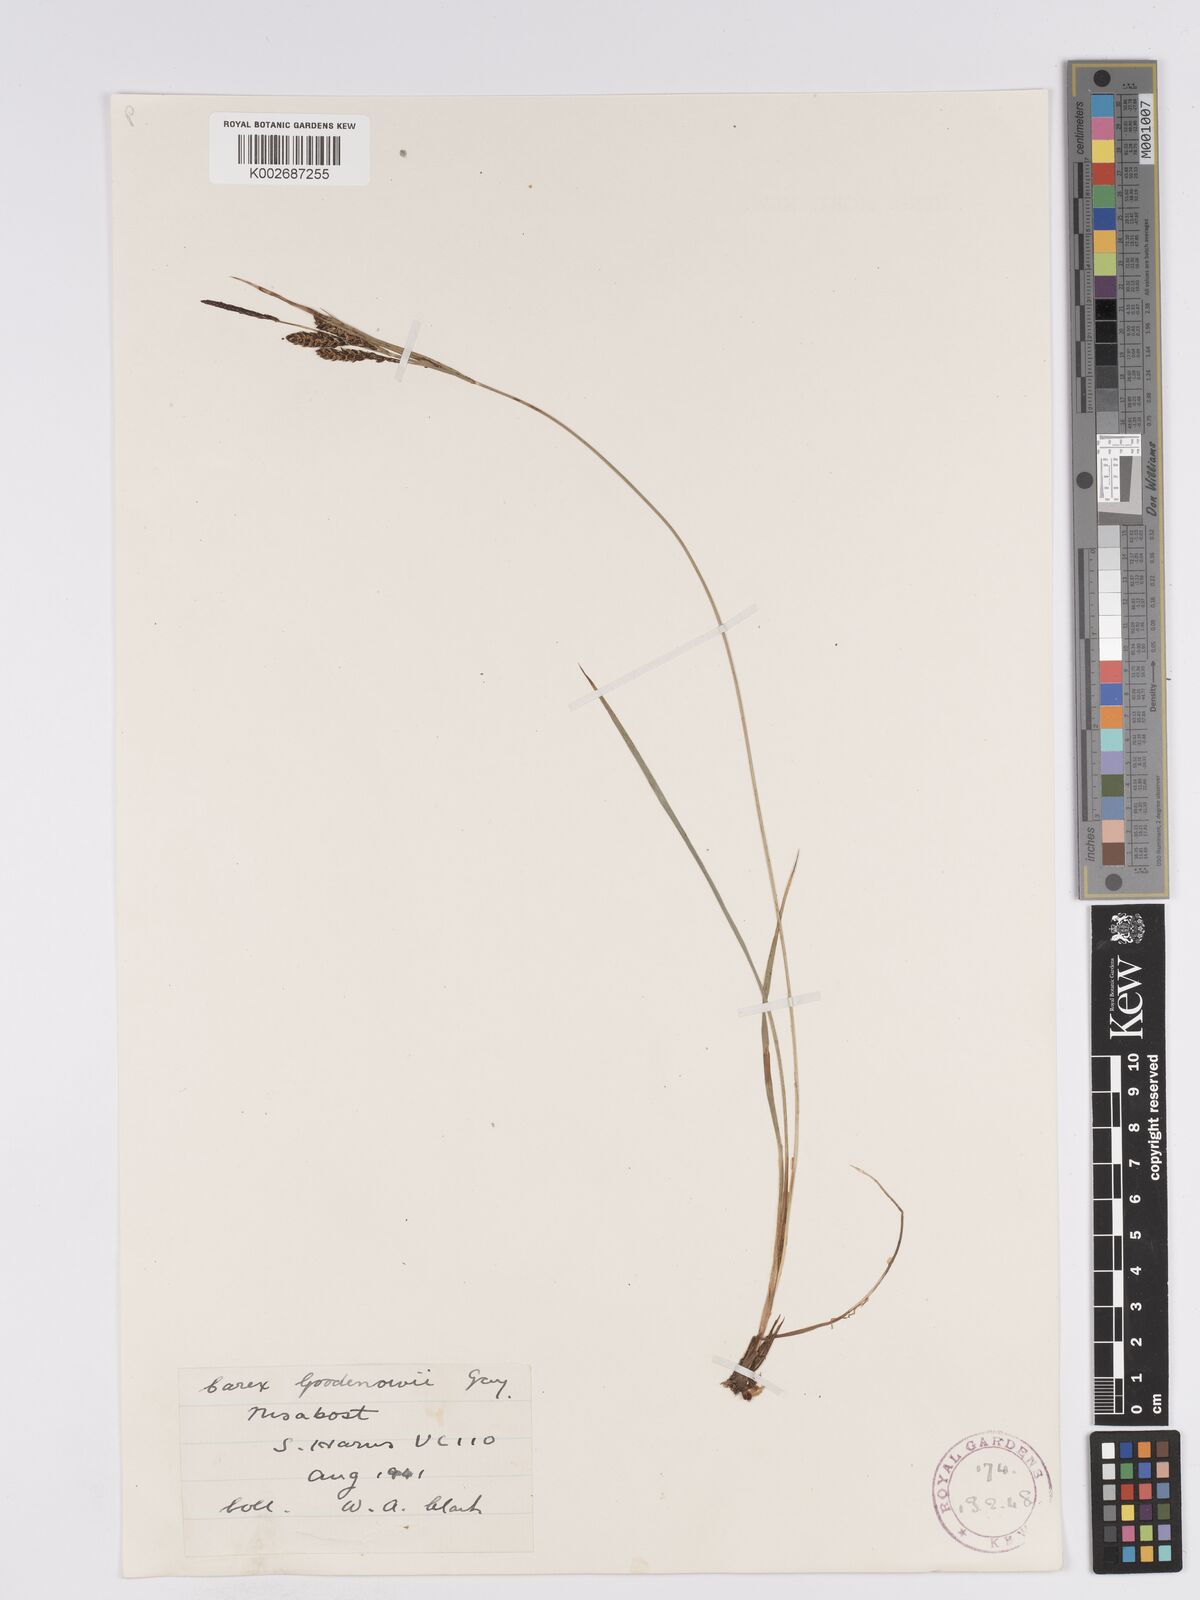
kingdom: Plantae
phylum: Tracheophyta
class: Liliopsida
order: Poales
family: Cyperaceae
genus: Carex
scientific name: Carex nigra
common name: Common sedge
